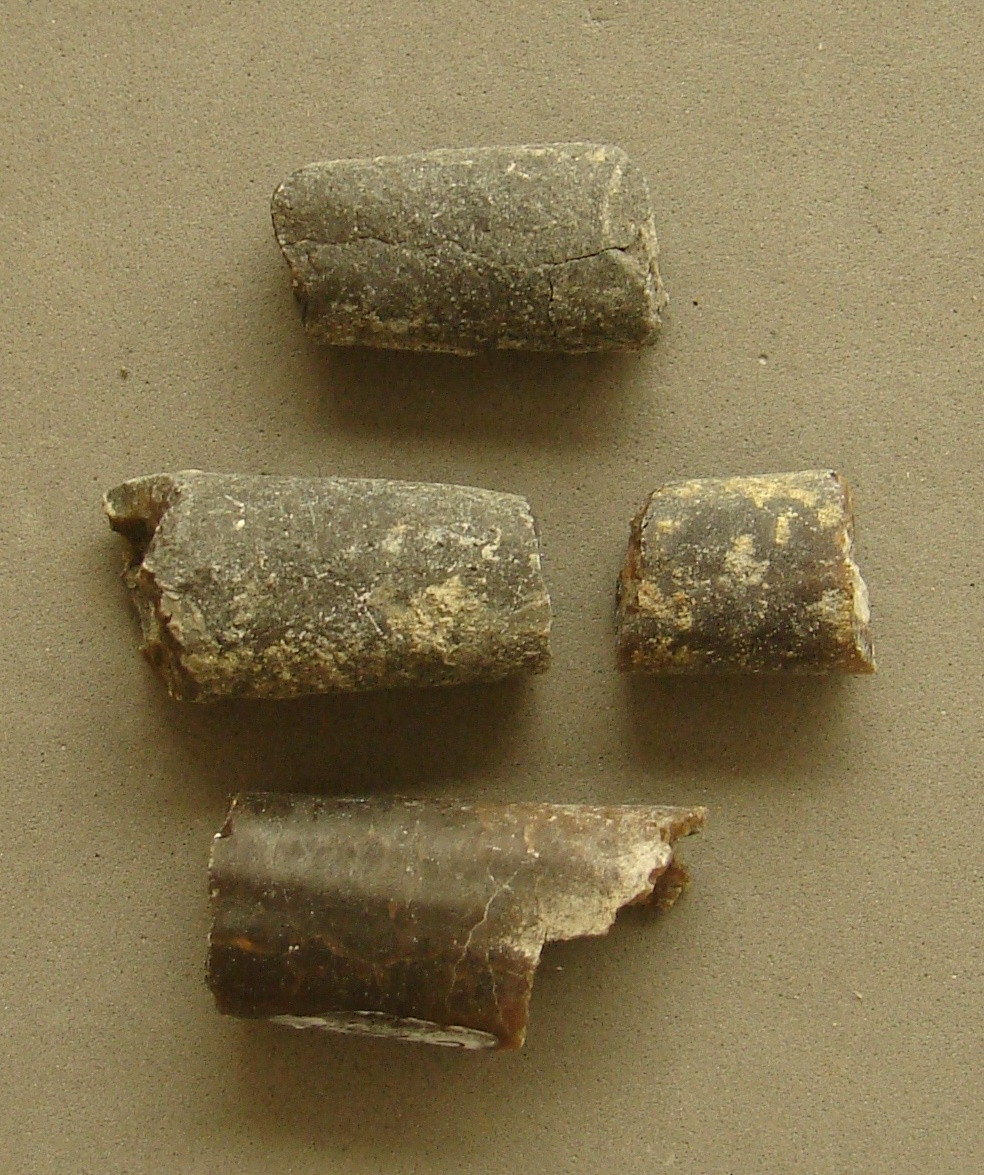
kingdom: Animalia
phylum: Mollusca
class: Cephalopoda
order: Belemnitida
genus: Nannobelus
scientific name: Nannobelus
